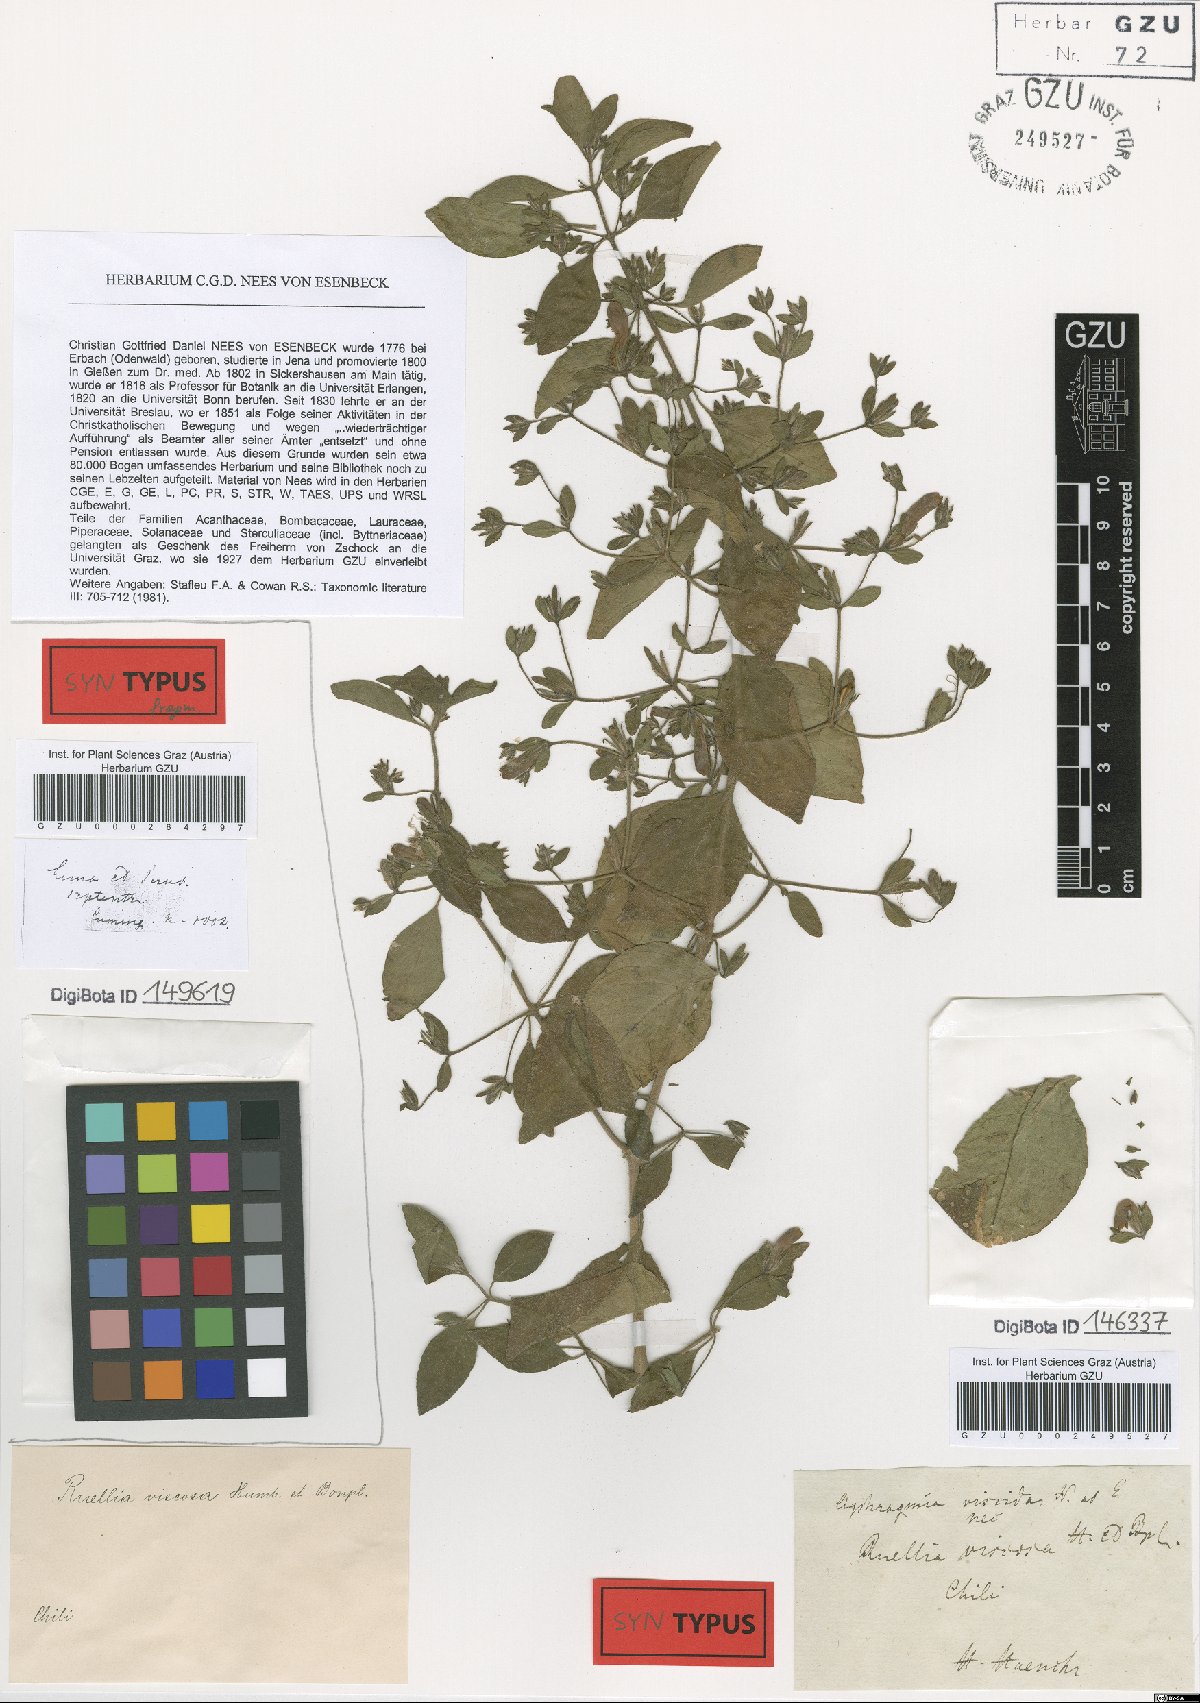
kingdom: Plantae
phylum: Tracheophyta
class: Magnoliopsida
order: Lamiales
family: Acanthaceae
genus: Ruellia
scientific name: Ruellia floribunda
